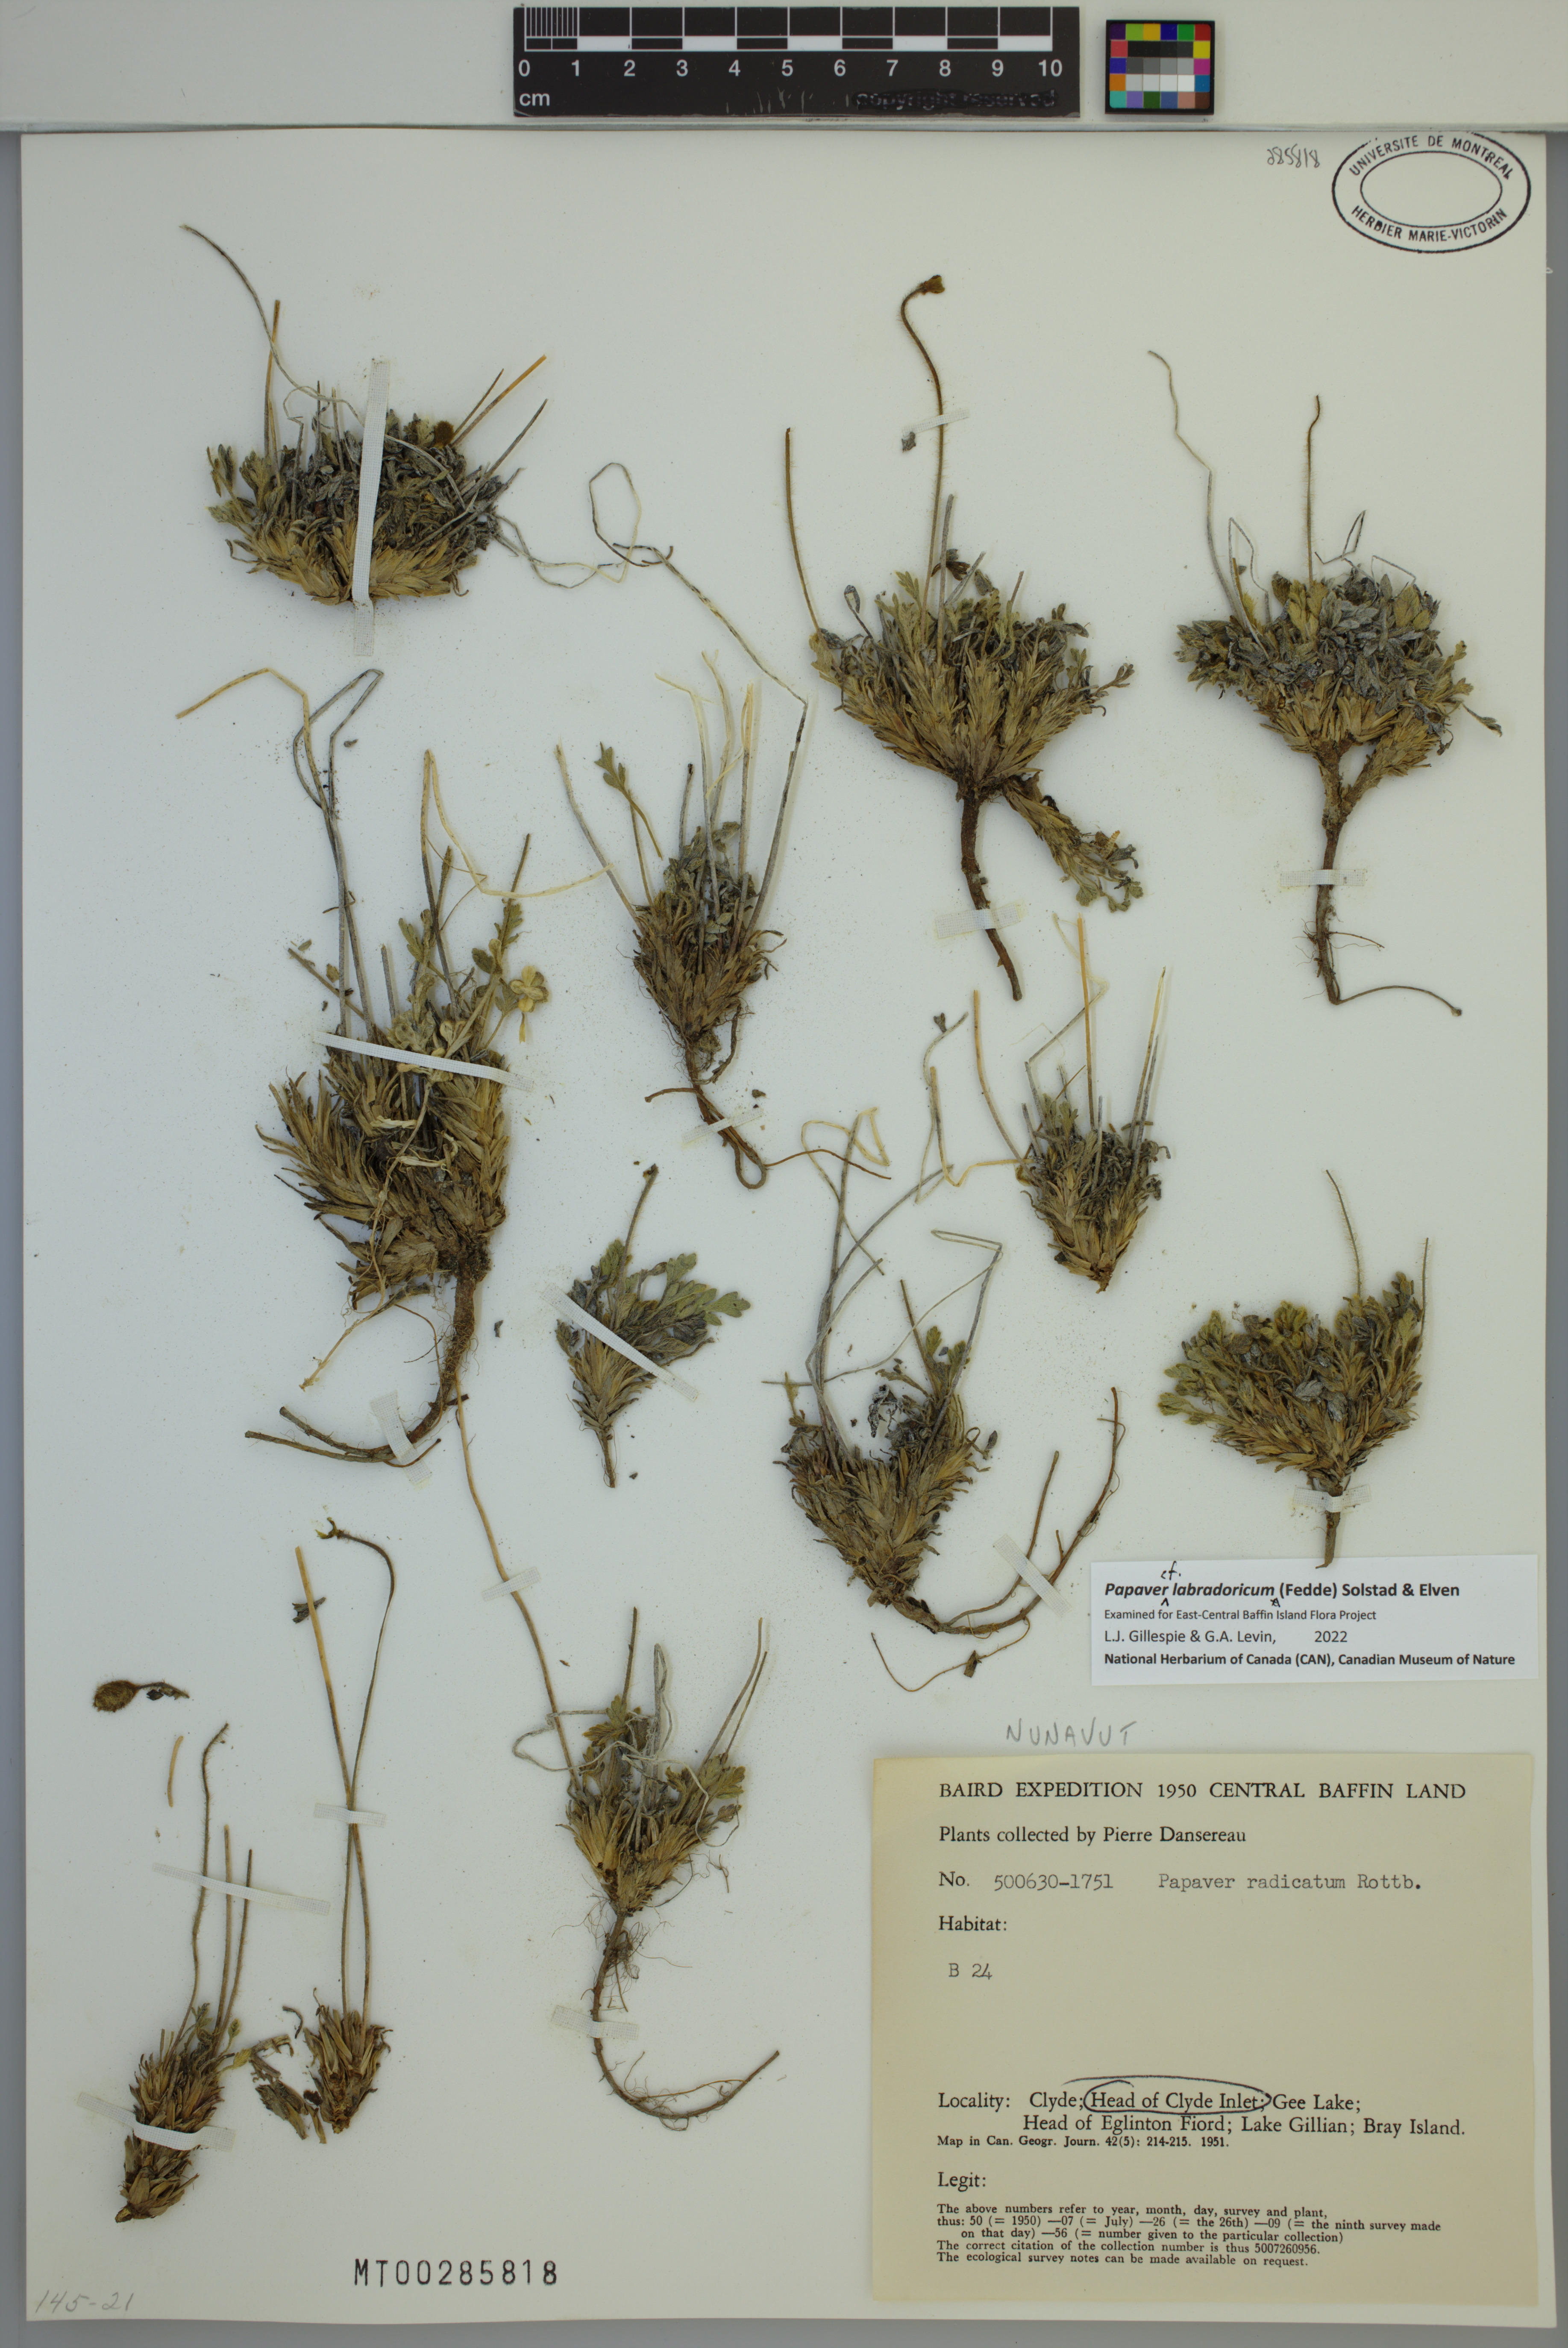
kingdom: Plantae
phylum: Tracheophyta
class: Magnoliopsida
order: Ranunculales
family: Papaveraceae
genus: Papaver
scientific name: Papaver radicatum
